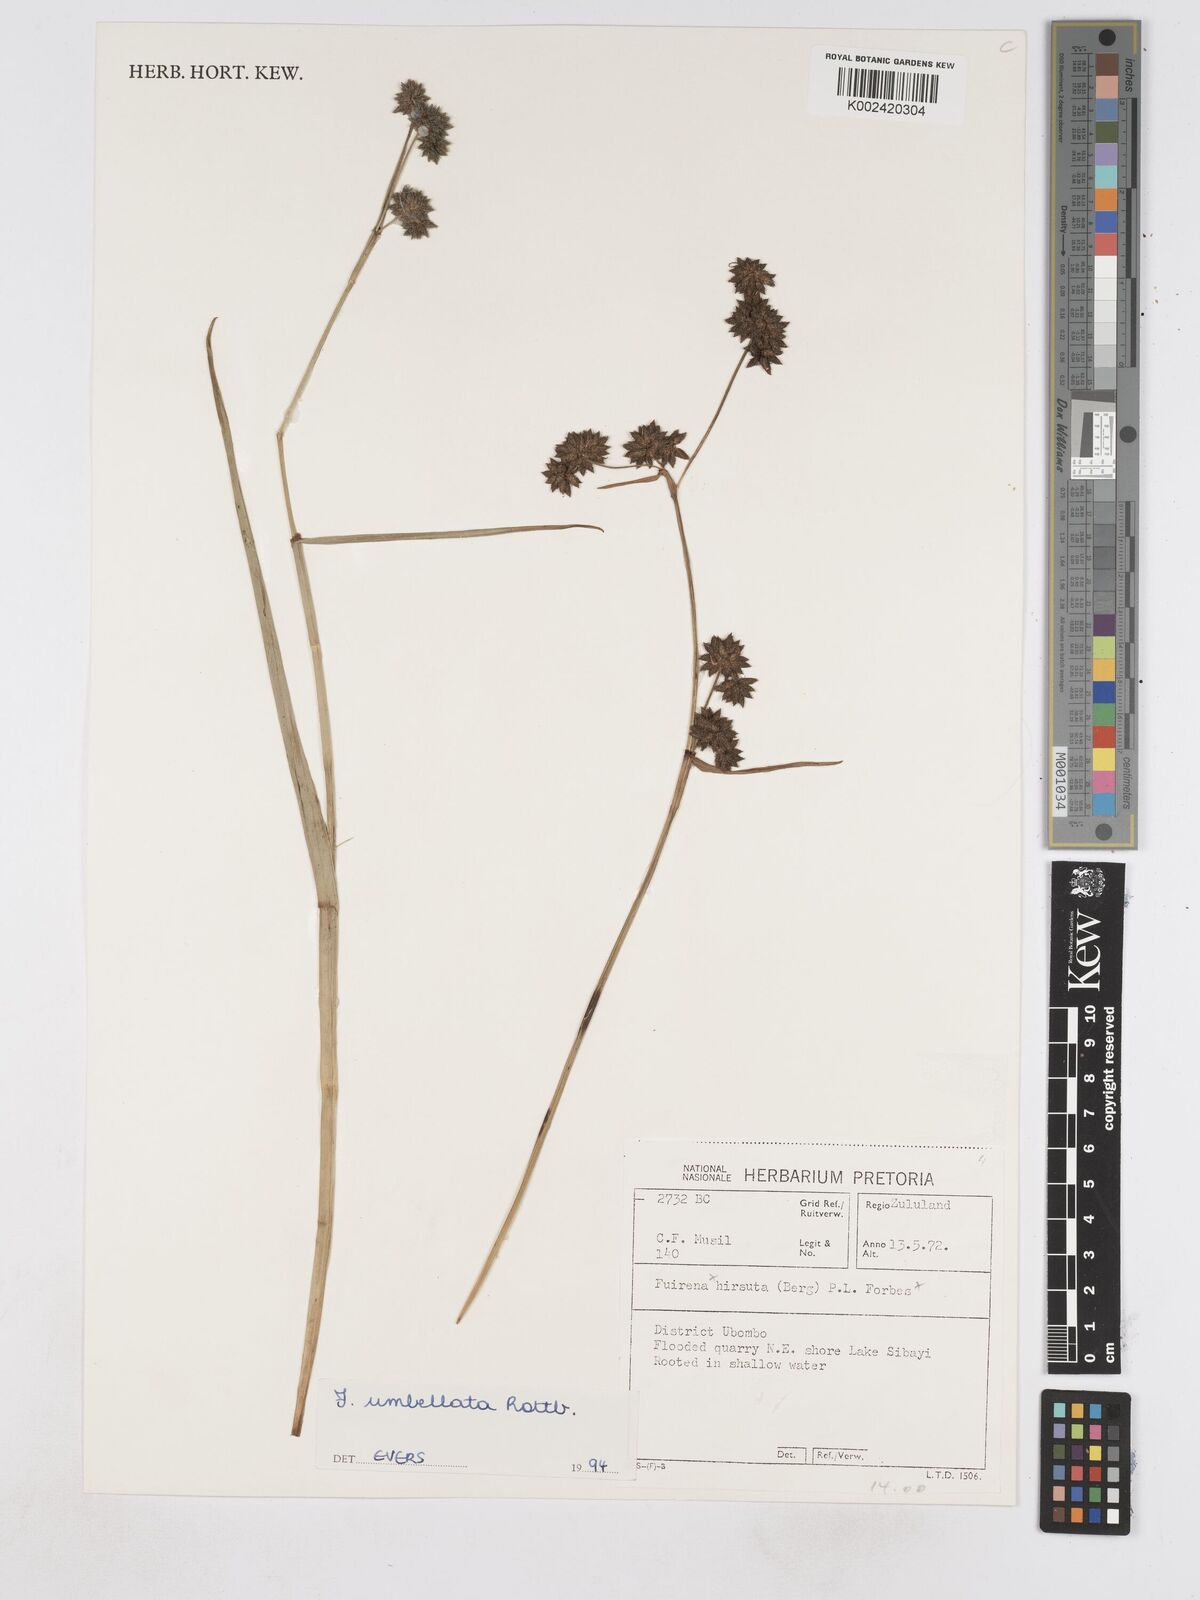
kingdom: Plantae
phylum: Tracheophyta
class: Liliopsida
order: Poales
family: Cyperaceae
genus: Fuirena
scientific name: Fuirena umbellata
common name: Yefen
